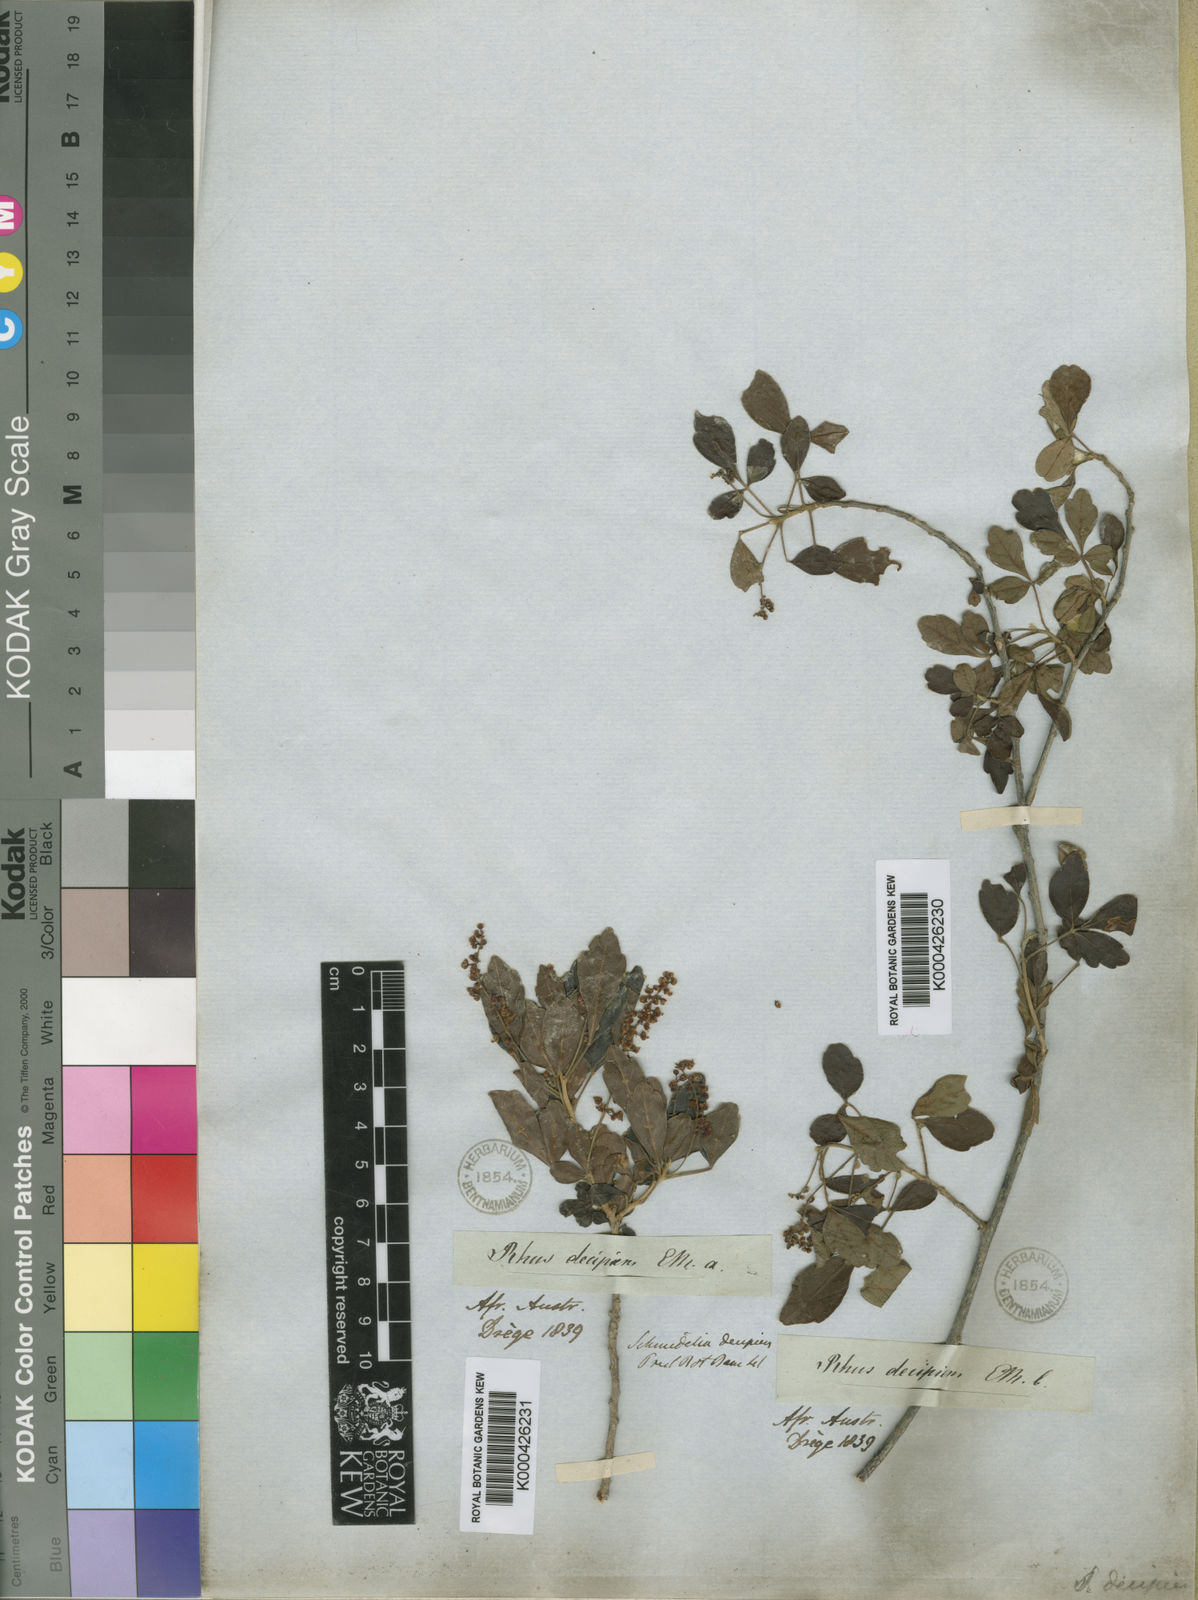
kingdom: Plantae
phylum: Tracheophyta
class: Magnoliopsida
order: Sapindales
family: Sapindaceae
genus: Allophylus
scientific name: Allophylus decipiens
